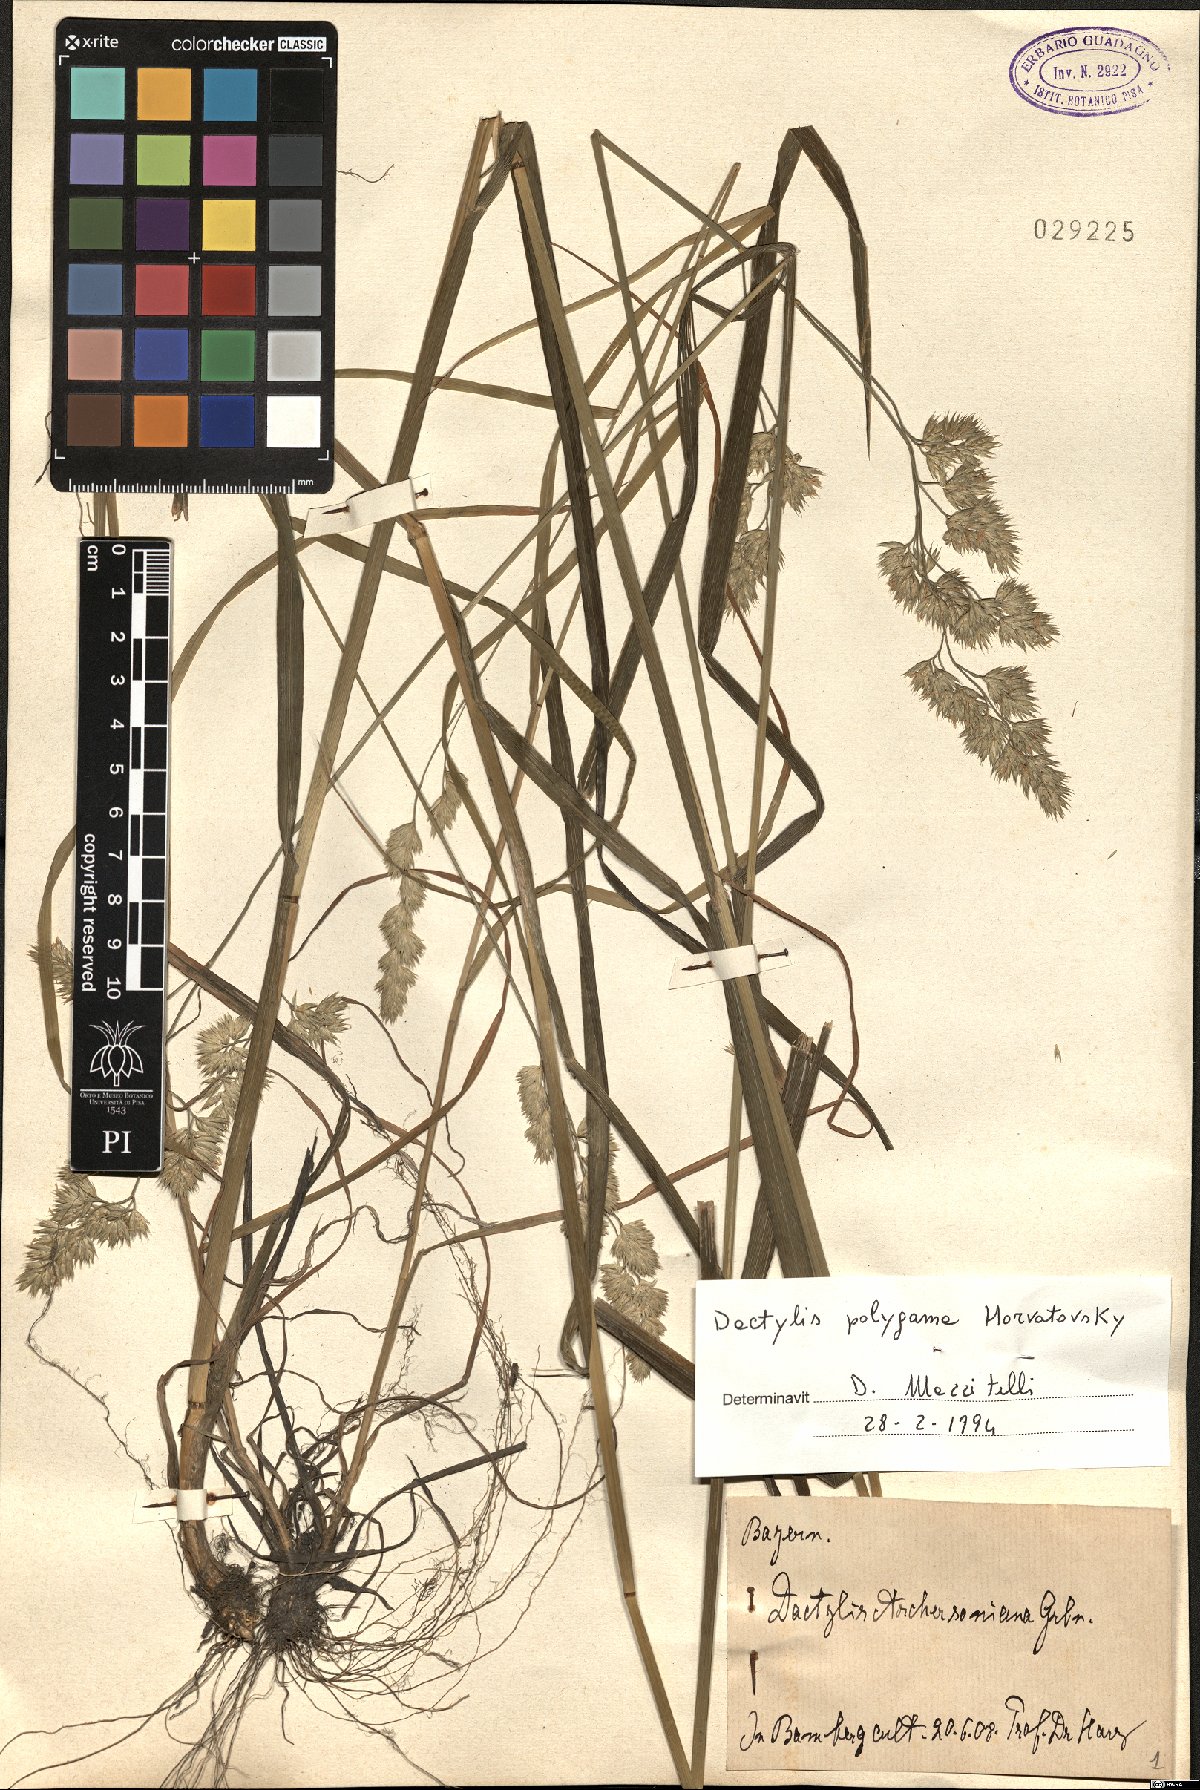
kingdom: Plantae
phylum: Tracheophyta
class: Liliopsida
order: Poales
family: Poaceae
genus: Dactylis
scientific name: Dactylis glomerata
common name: Orchardgrass
